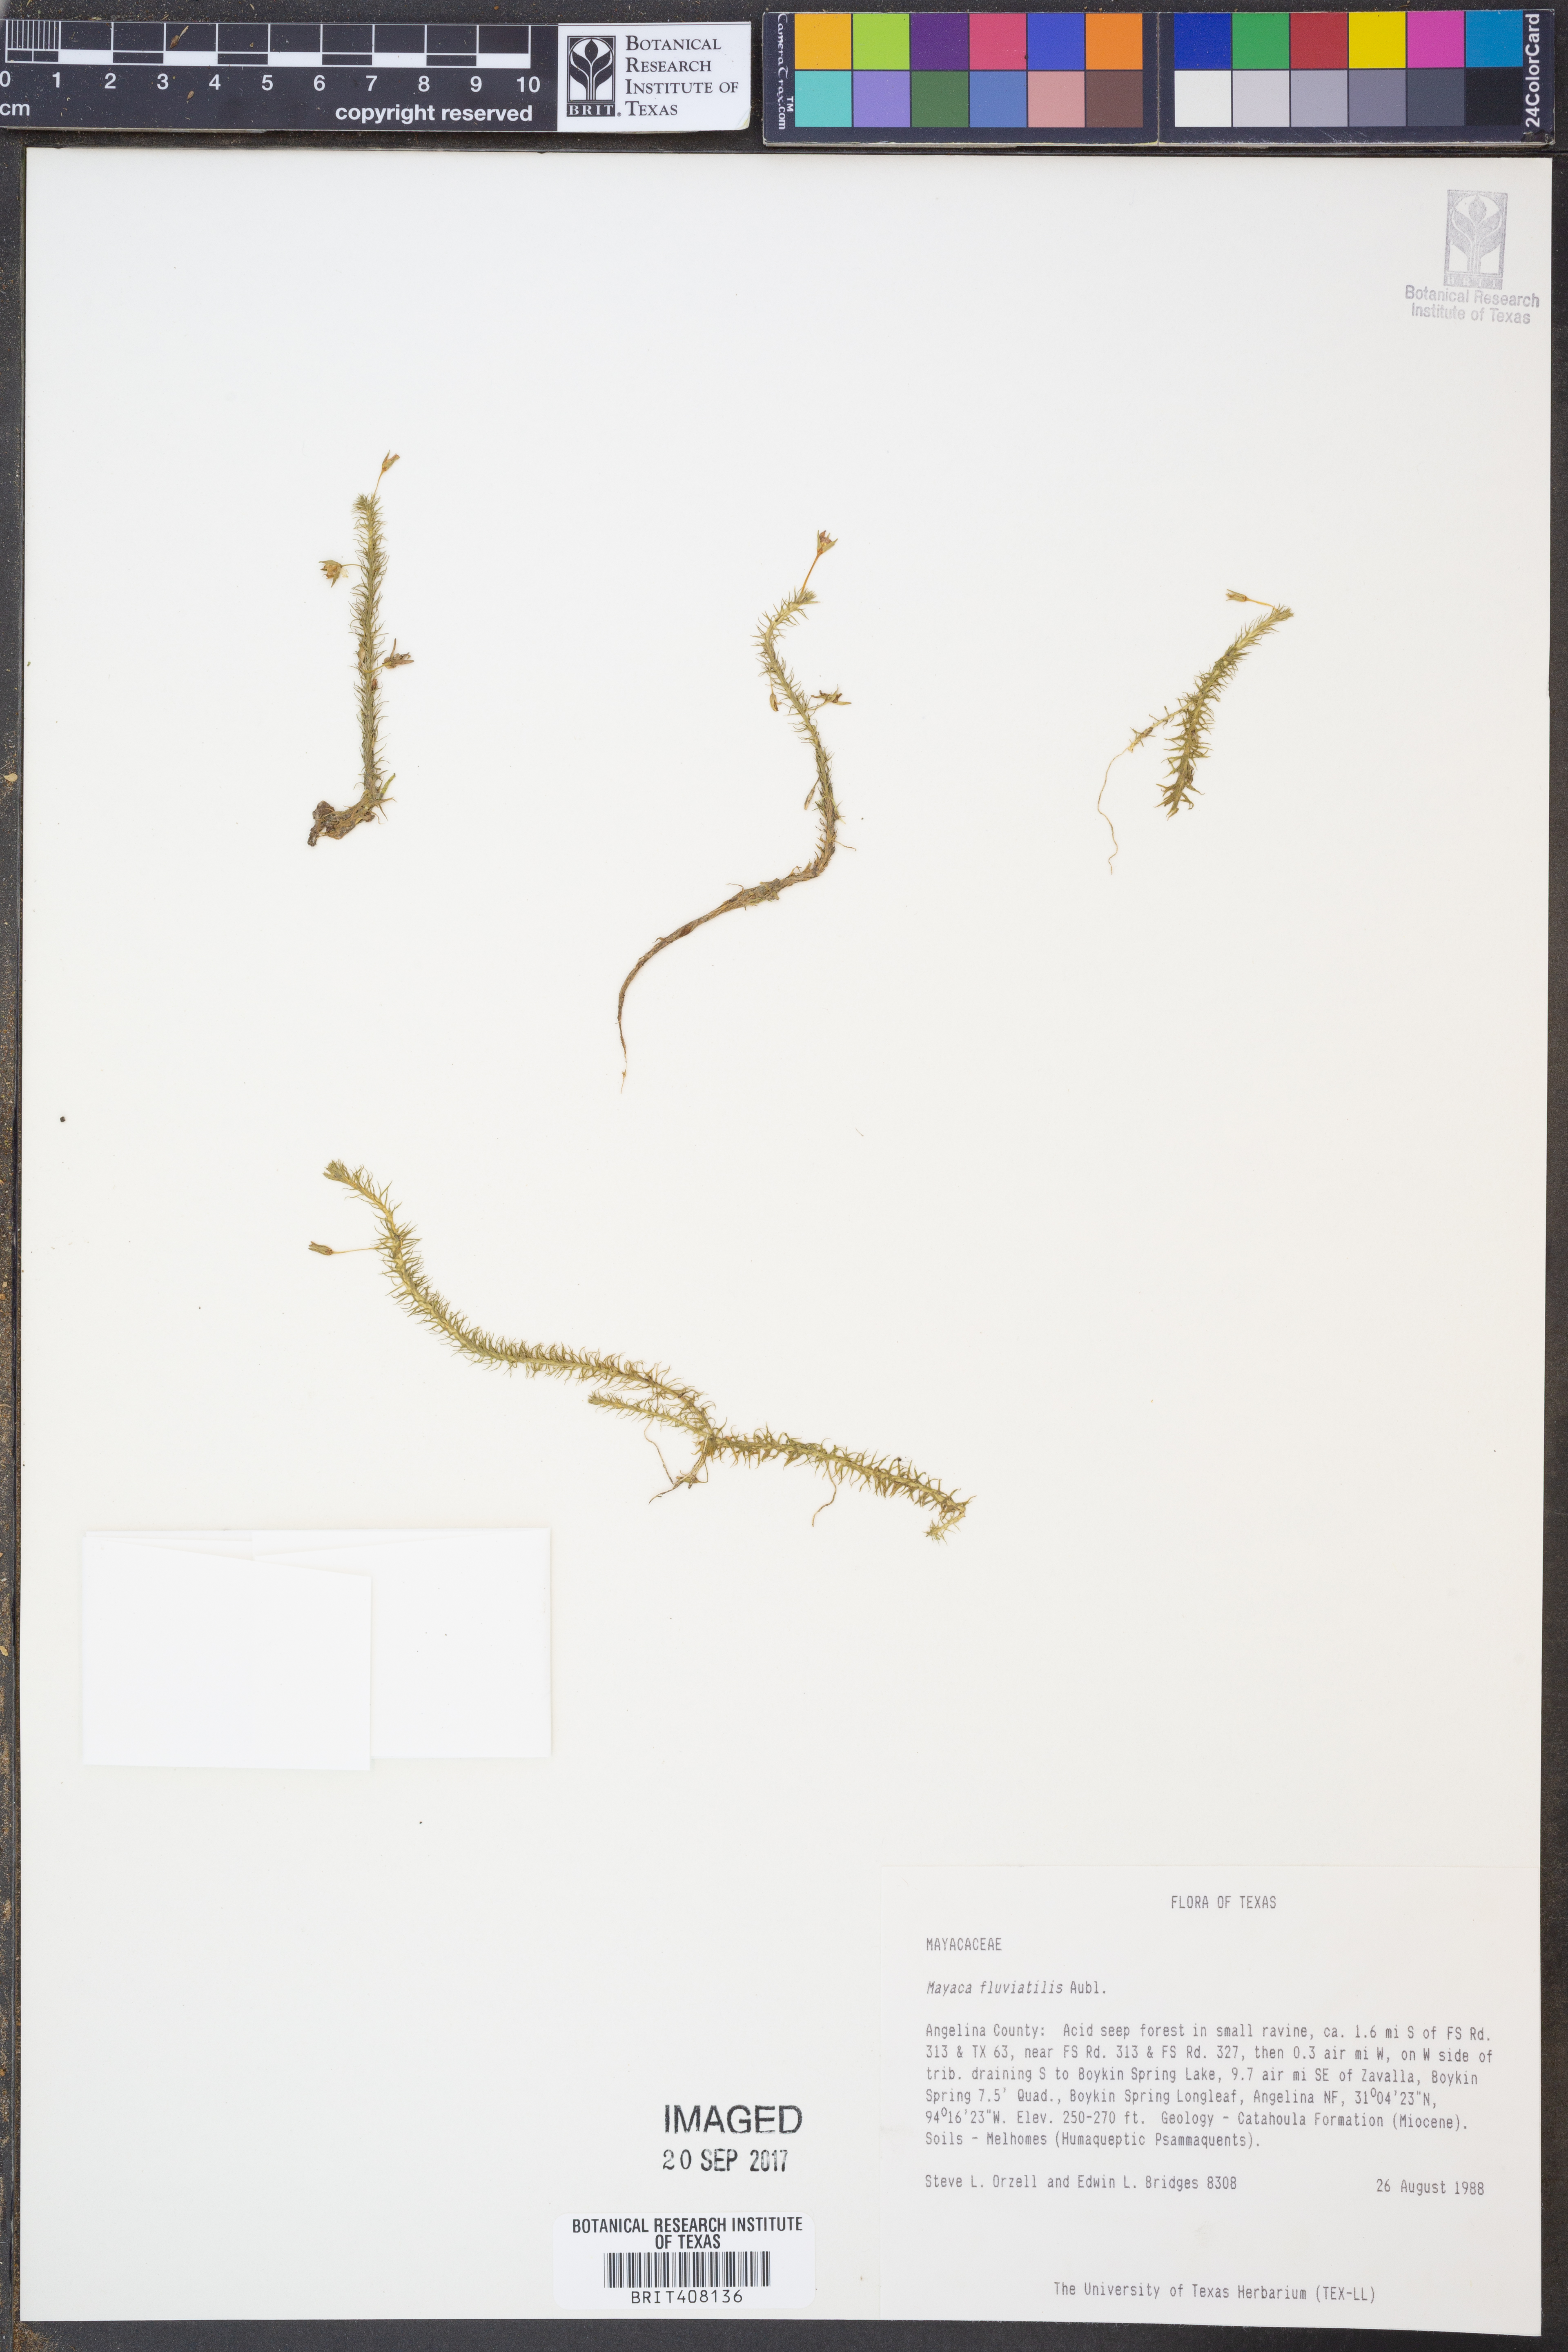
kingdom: Plantae
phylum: Tracheophyta
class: Liliopsida
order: Poales
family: Mayacaceae
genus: Mayaca
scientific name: Mayaca fluviatilis
